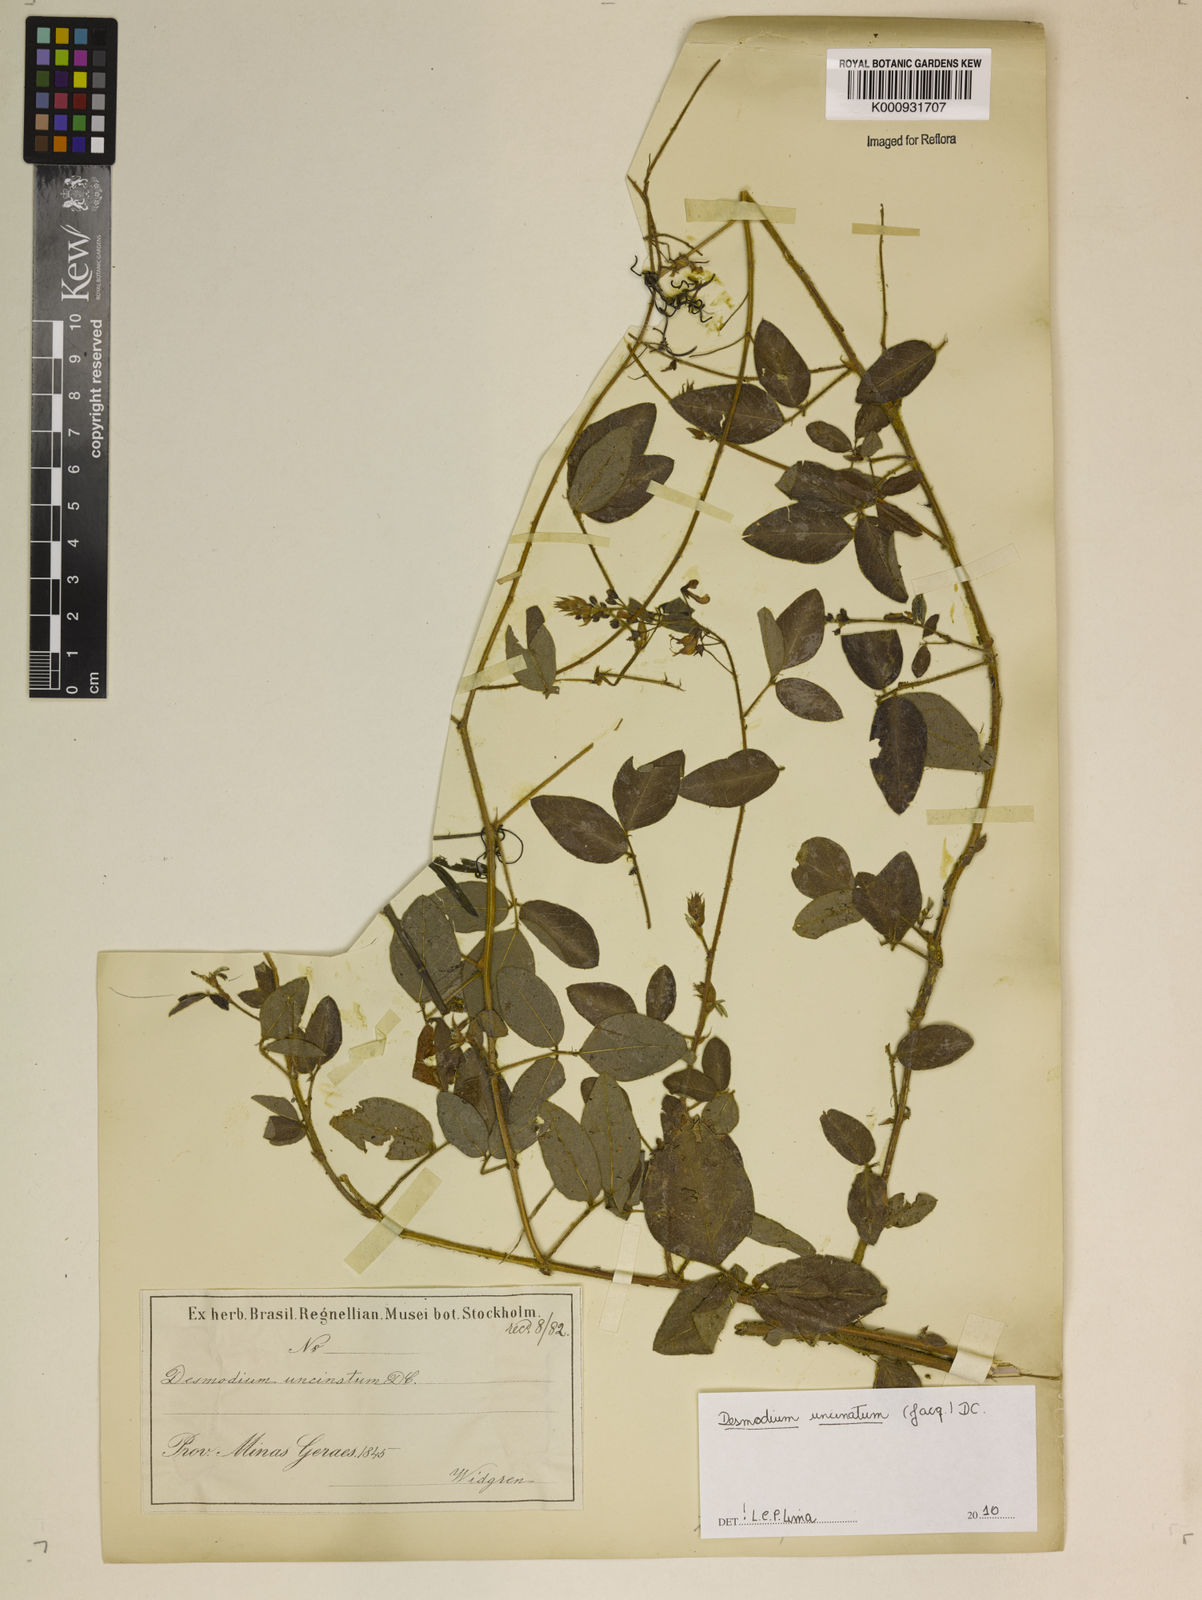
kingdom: Plantae
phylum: Tracheophyta
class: Magnoliopsida
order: Fabales
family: Fabaceae
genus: Desmodium
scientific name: Desmodium uncinatum
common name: Silverleaf desmodium
